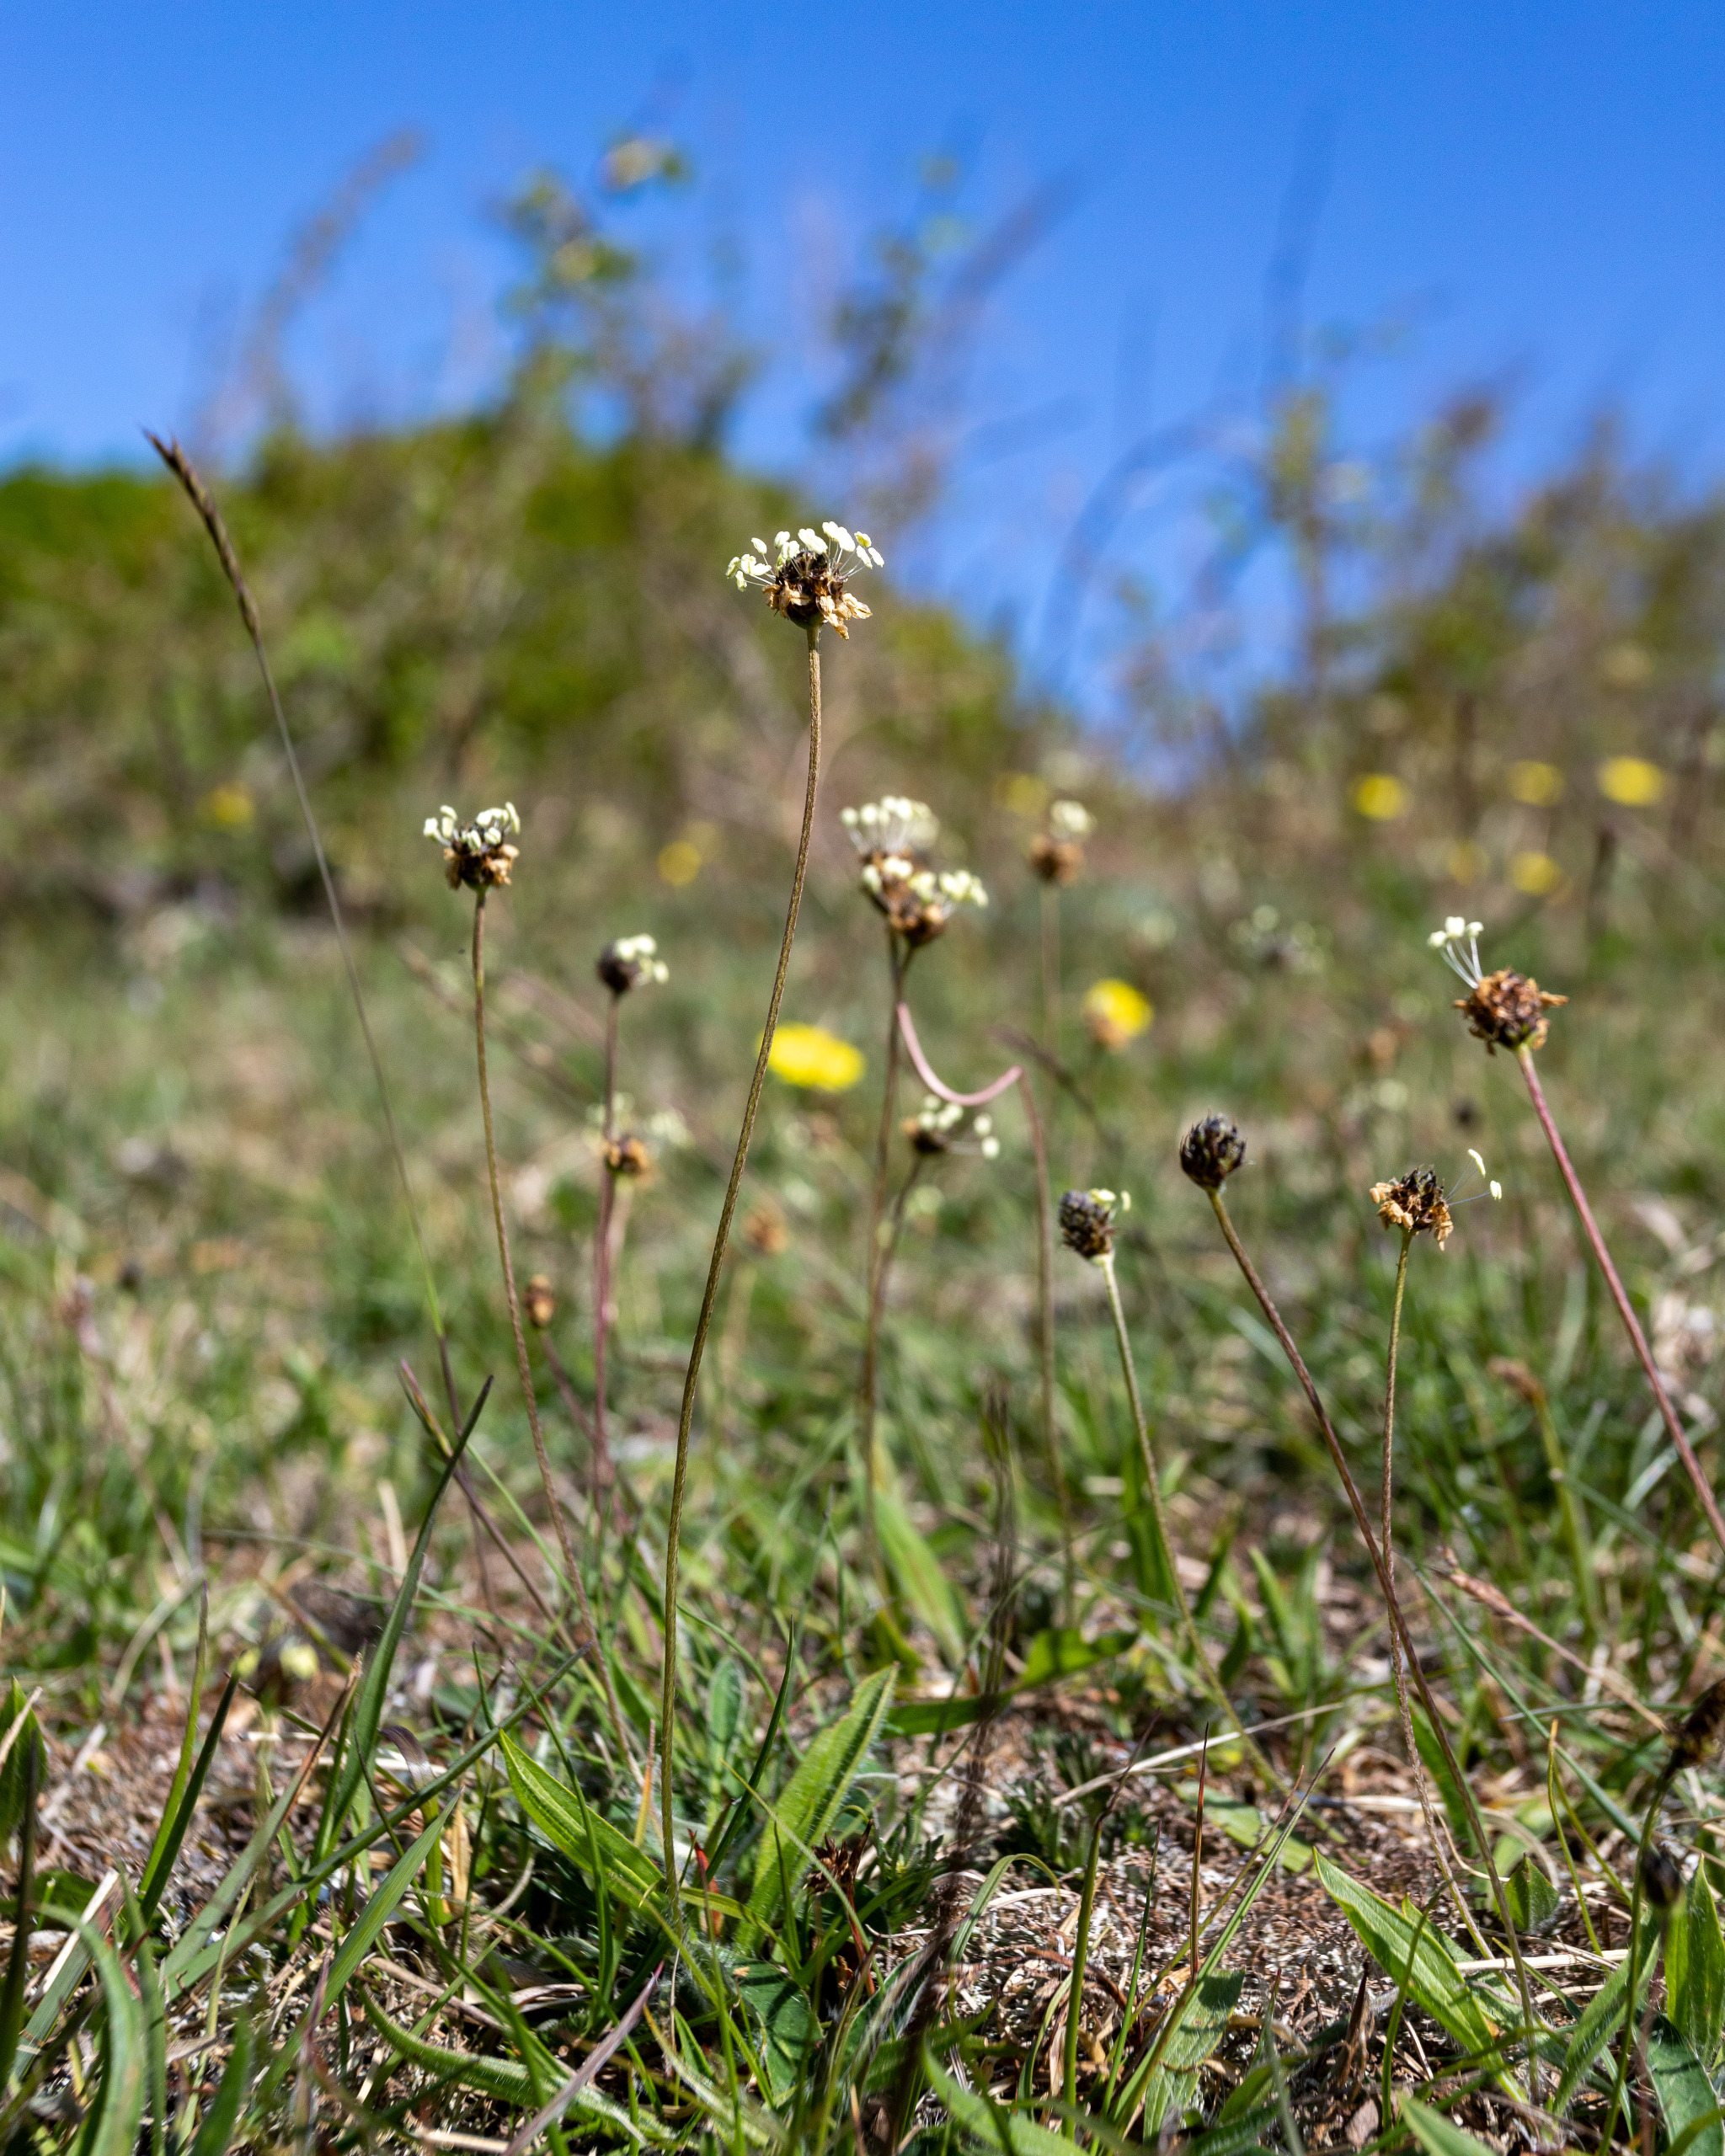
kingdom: Plantae
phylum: Tracheophyta
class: Magnoliopsida
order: Lamiales
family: Plantaginaceae
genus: Plantago
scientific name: Plantago lanceolata
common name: Lancet-vejbred
